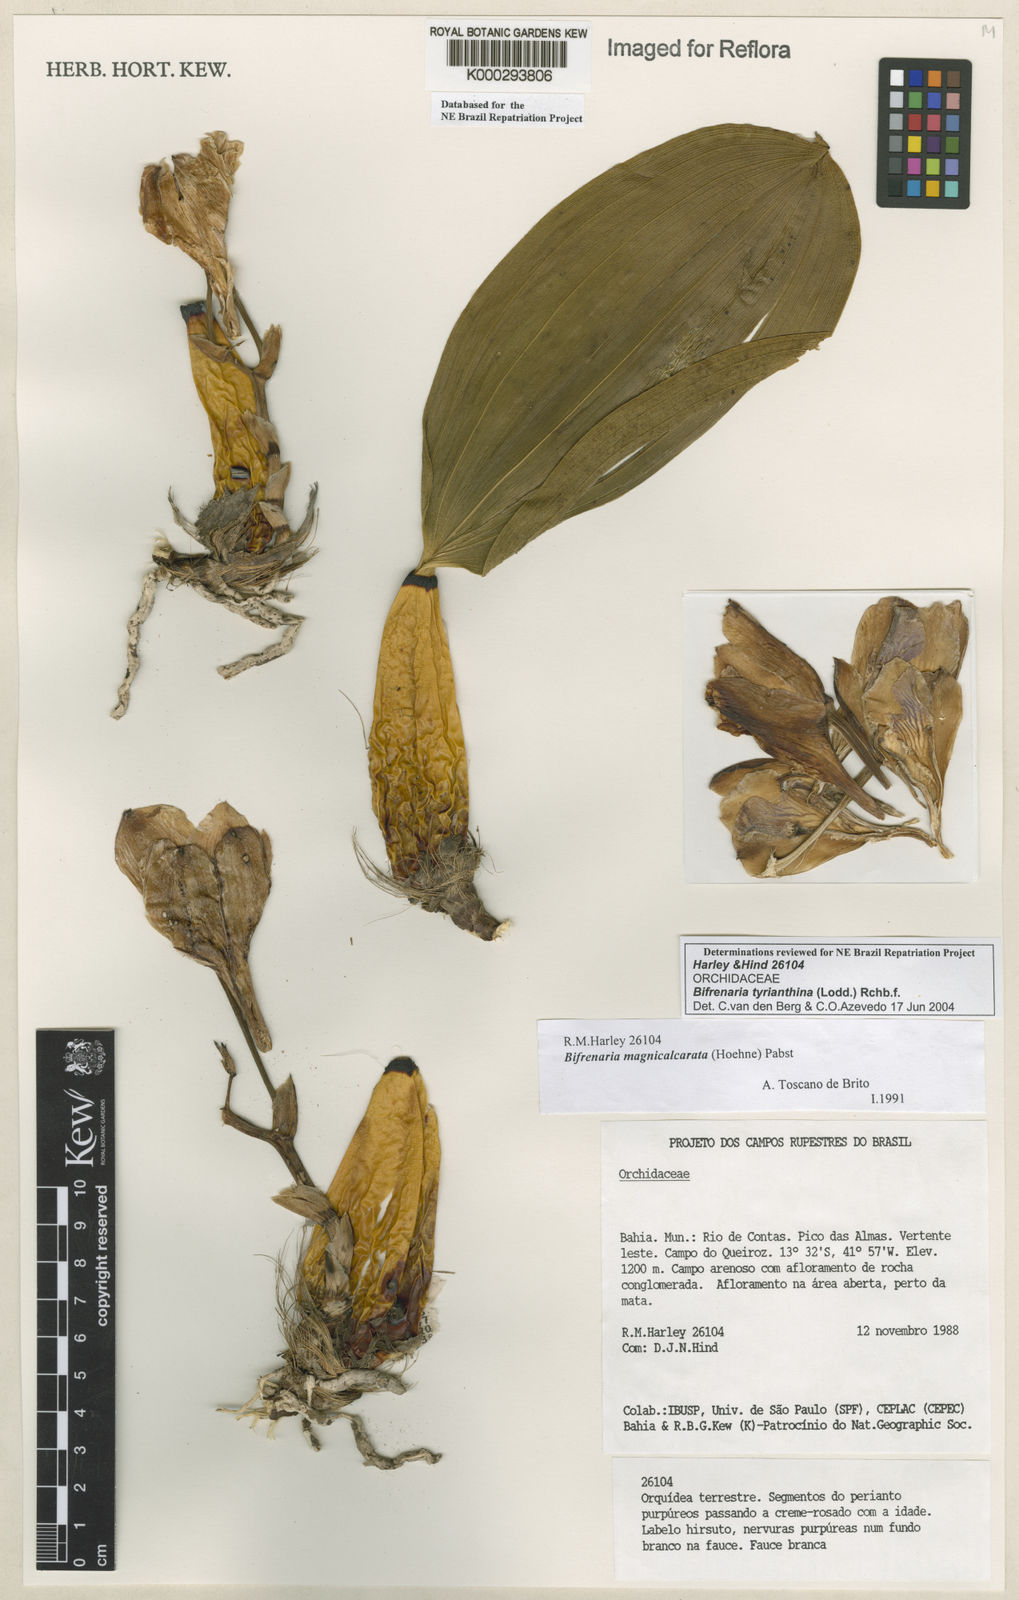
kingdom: Plantae
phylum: Tracheophyta
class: Liliopsida
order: Asparagales
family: Orchidaceae
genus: Bifrenaria
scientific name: Bifrenaria tyrianthina
